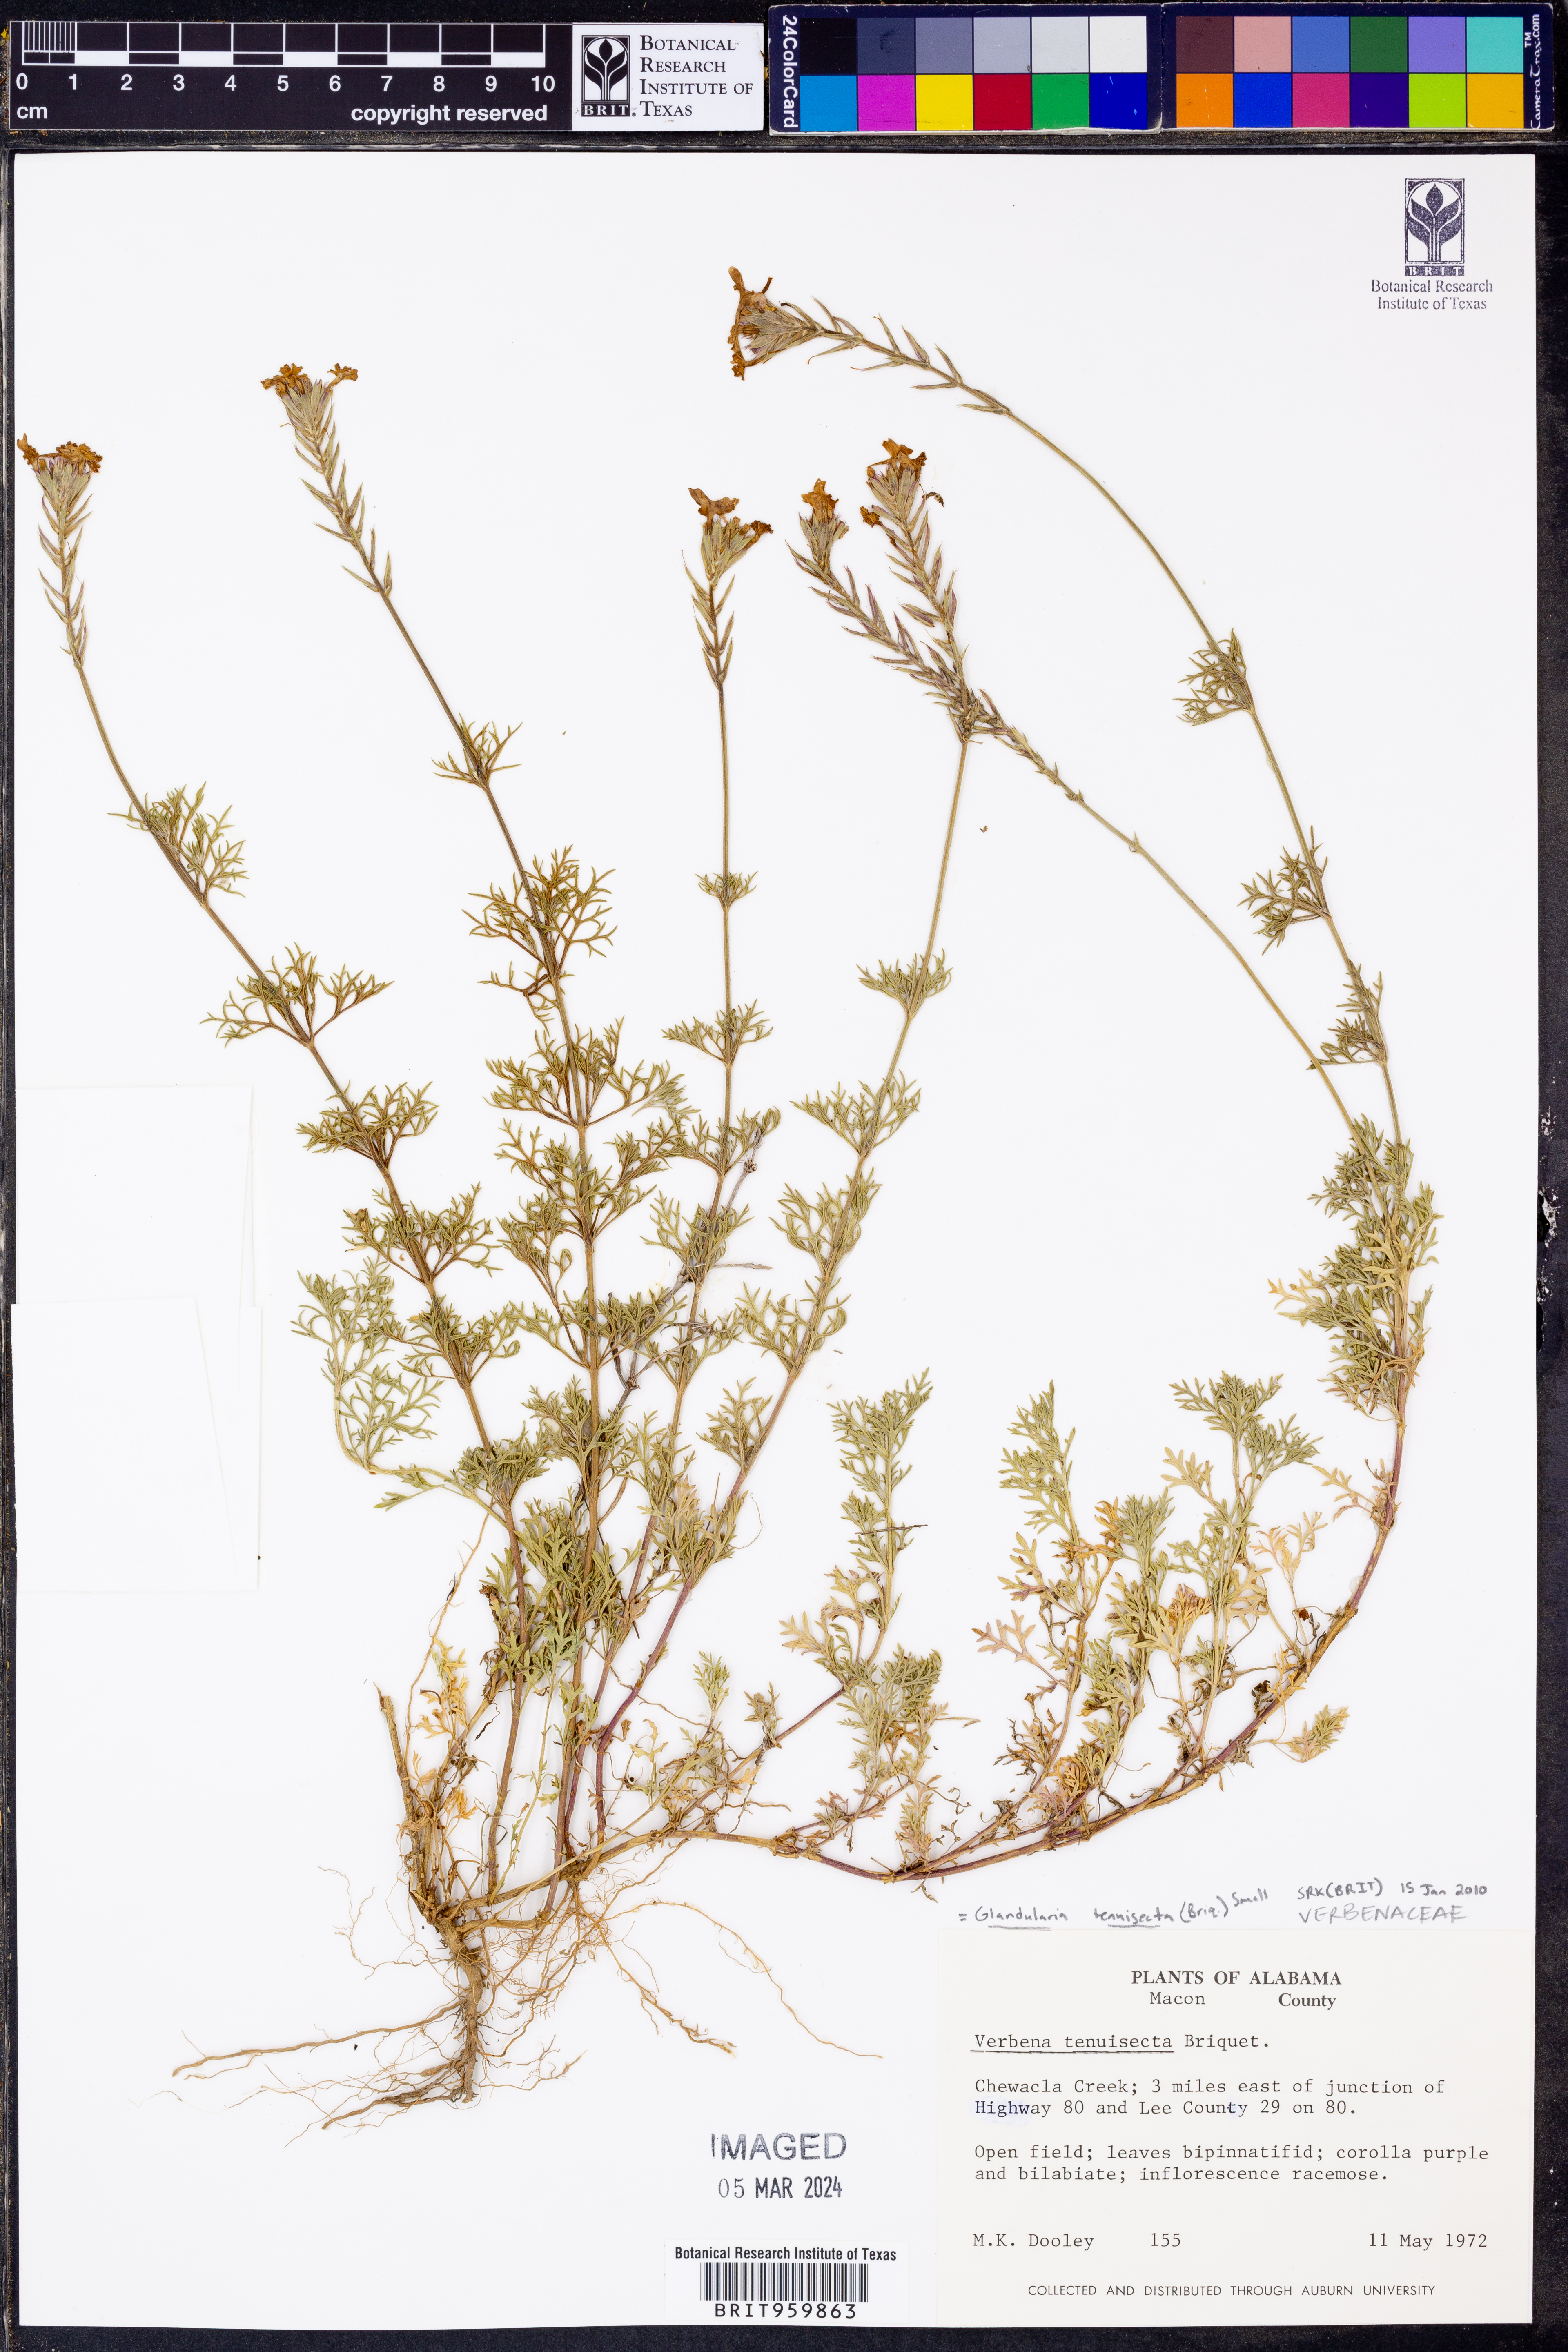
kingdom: Plantae
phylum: Tracheophyta
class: Magnoliopsida
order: Lamiales
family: Verbenaceae
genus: Verbena
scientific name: Verbena tenera
